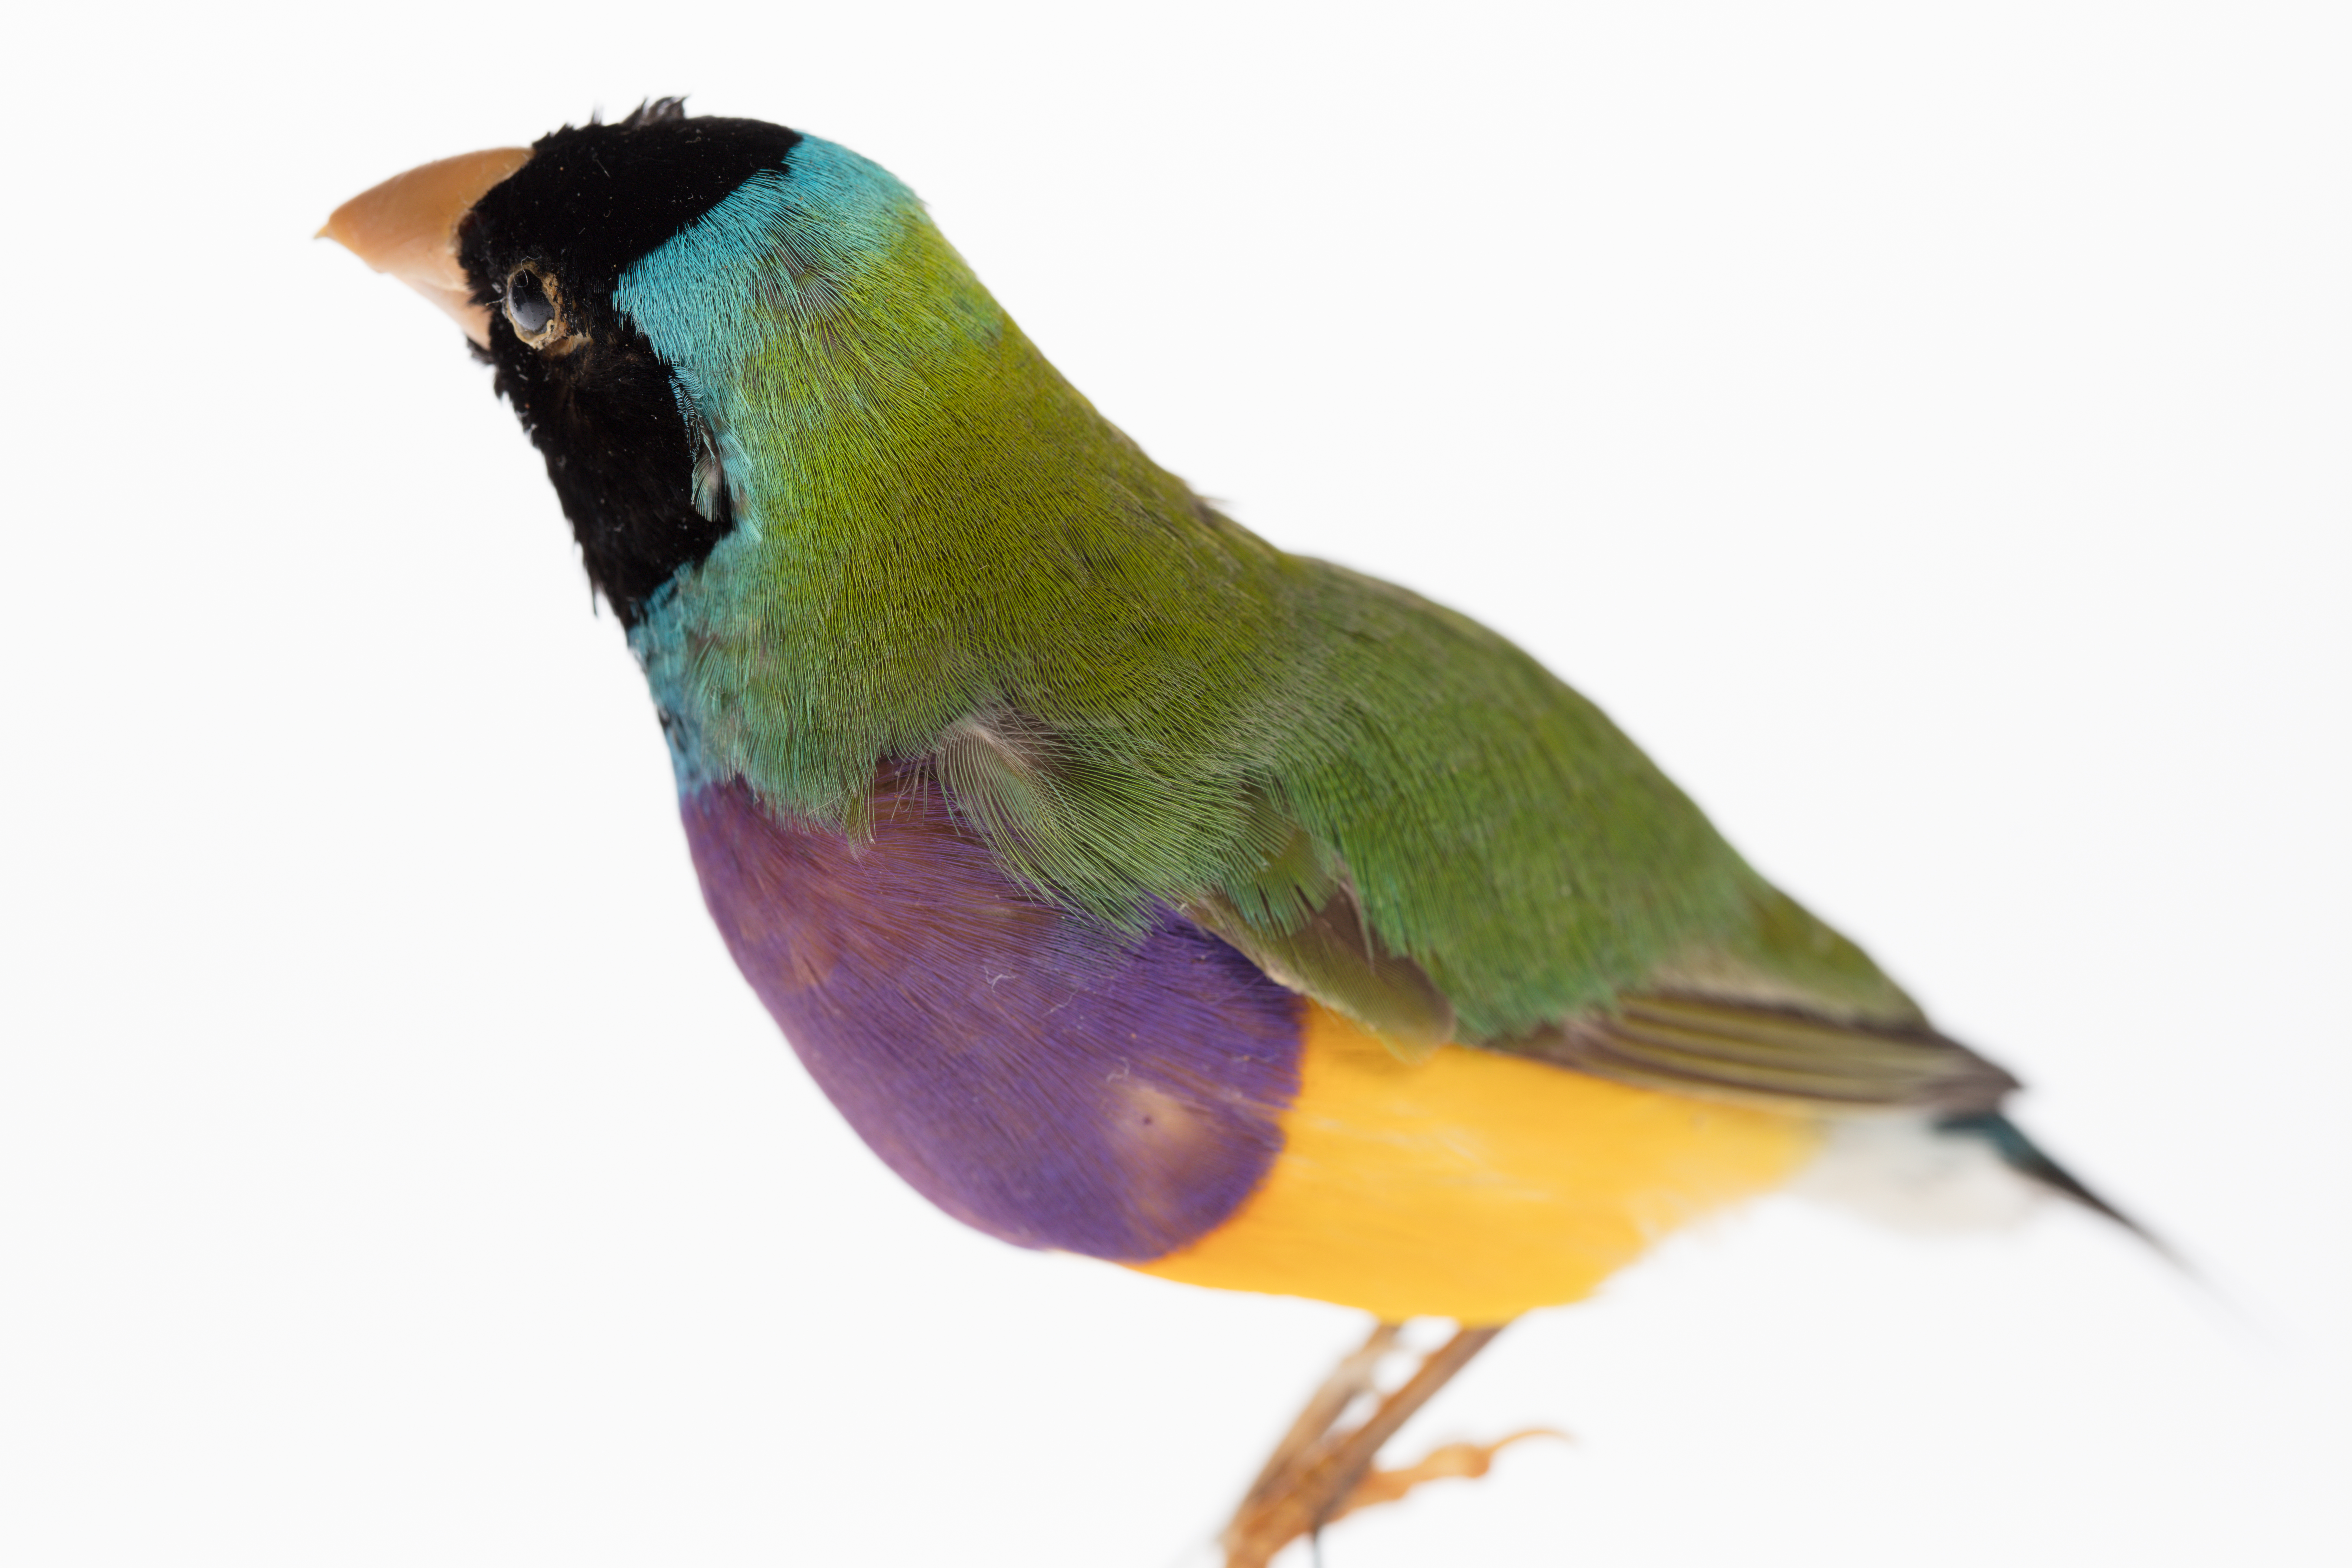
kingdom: Animalia
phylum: Chordata
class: Aves
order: Passeriformes
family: Estrildidae
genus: Erythrura
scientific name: Erythrura gouldiae
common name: Gouldian finch
